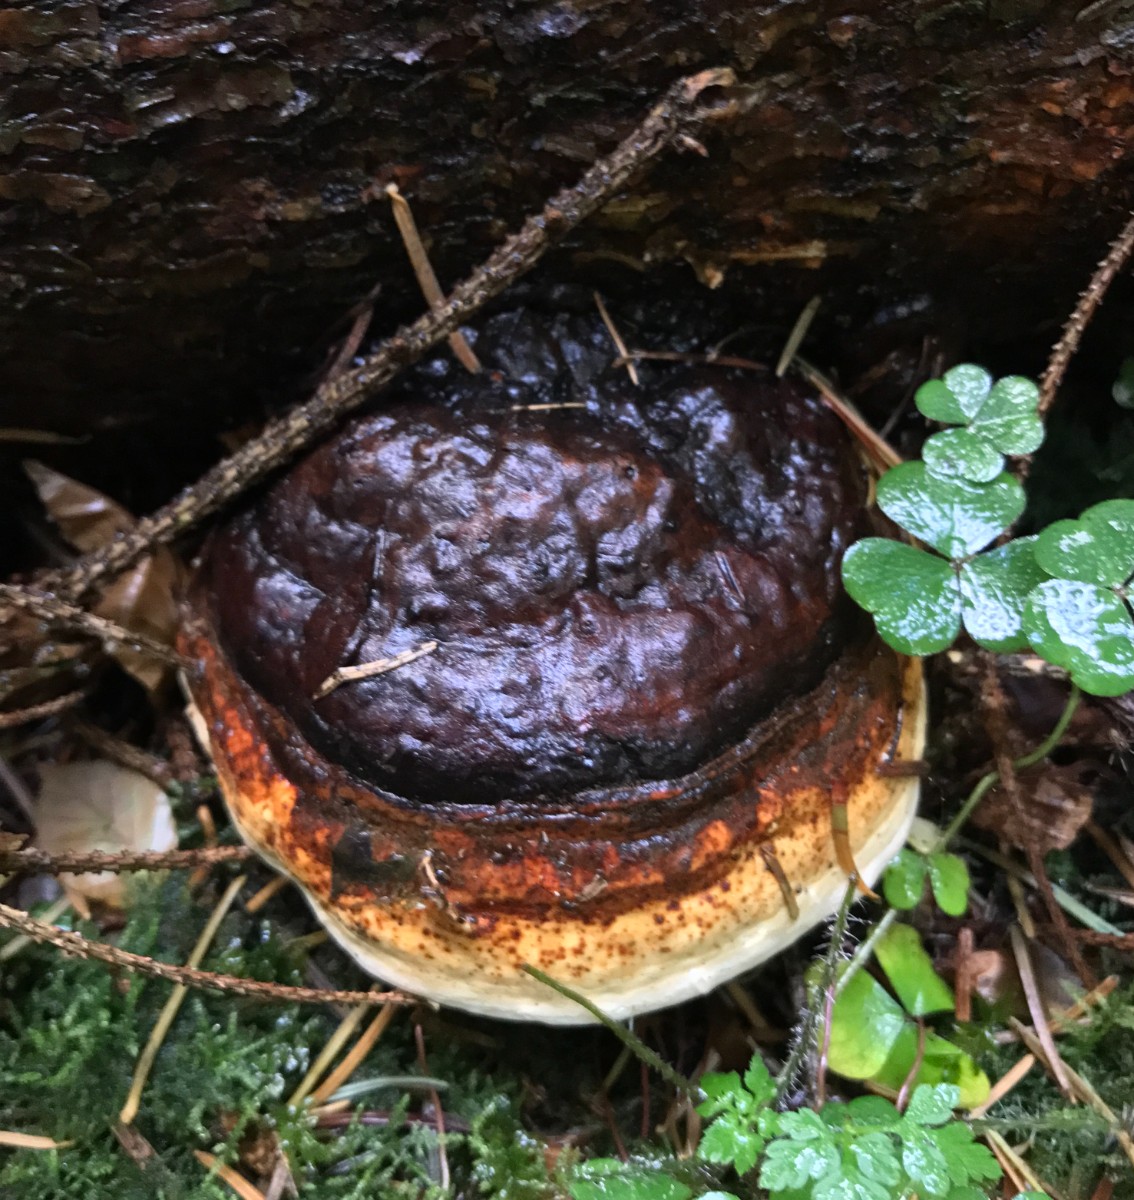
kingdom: Fungi
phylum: Basidiomycota
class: Agaricomycetes
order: Polyporales
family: Fomitopsidaceae
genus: Fomitopsis
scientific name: Fomitopsis pinicola
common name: randbæltet hovporesvamp
